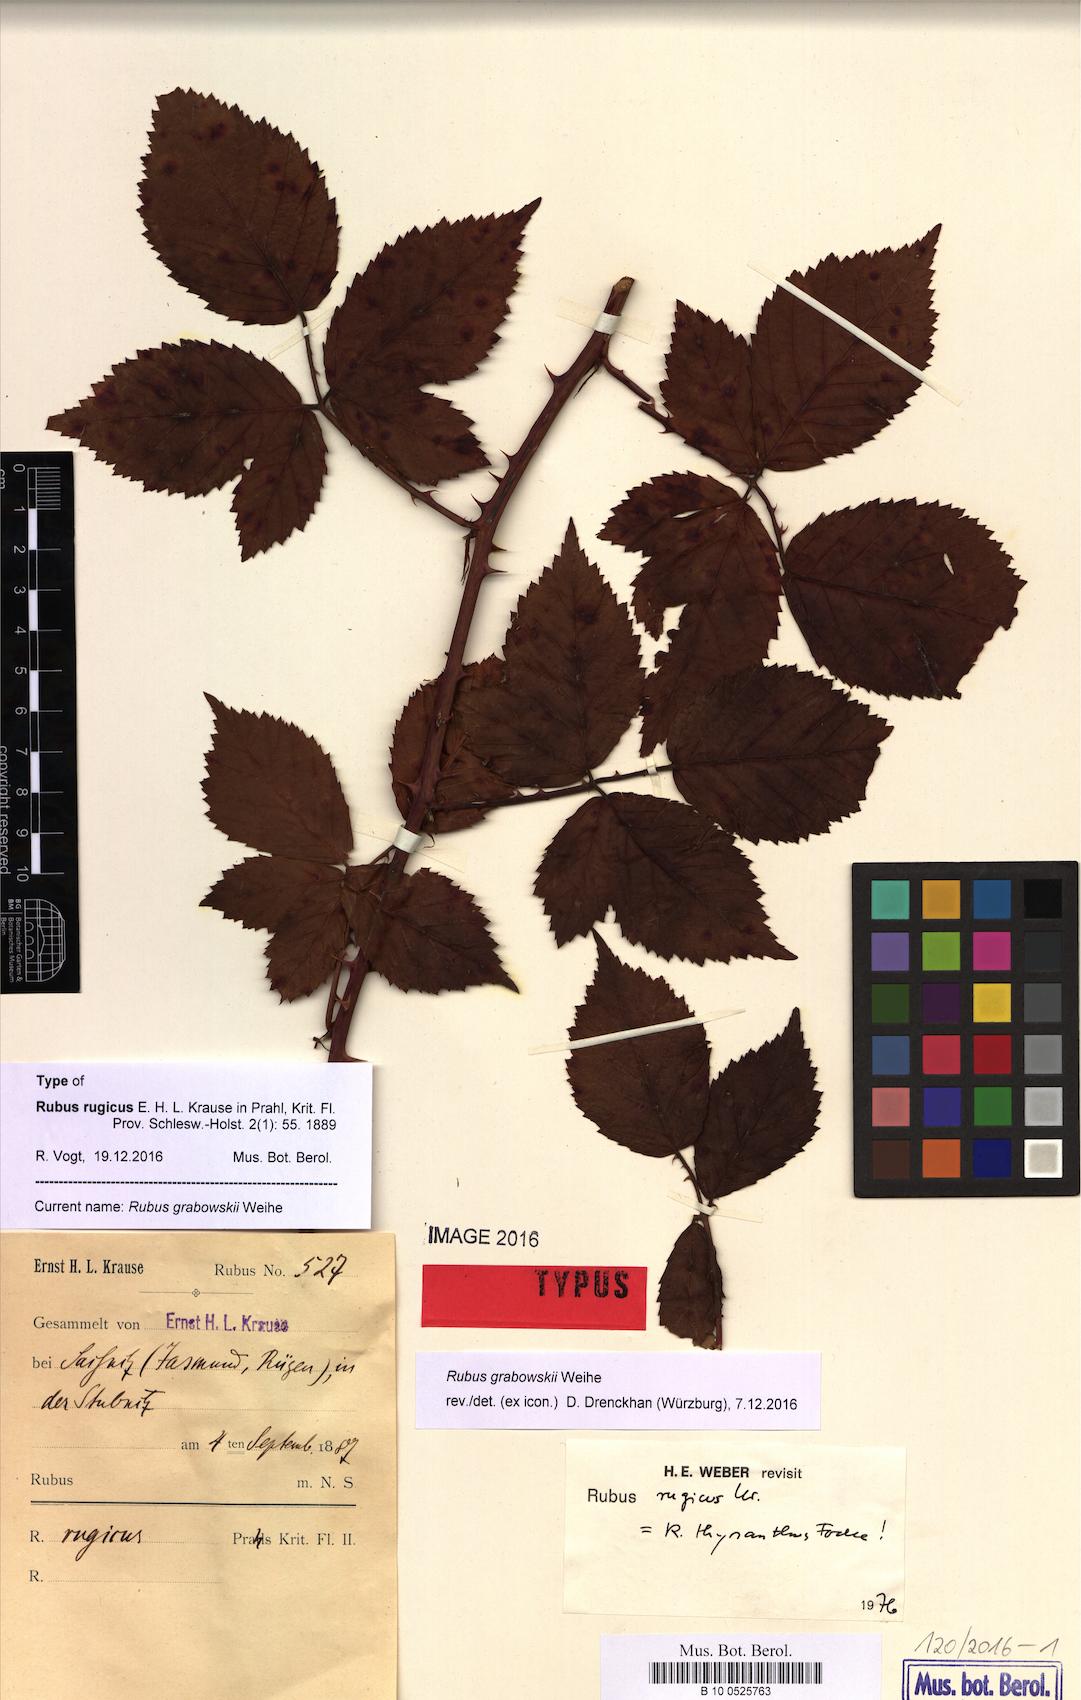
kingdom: Plantae
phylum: Tracheophyta
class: Magnoliopsida
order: Rosales
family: Rosaceae
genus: Rubus
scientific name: Rubus grabowskii
